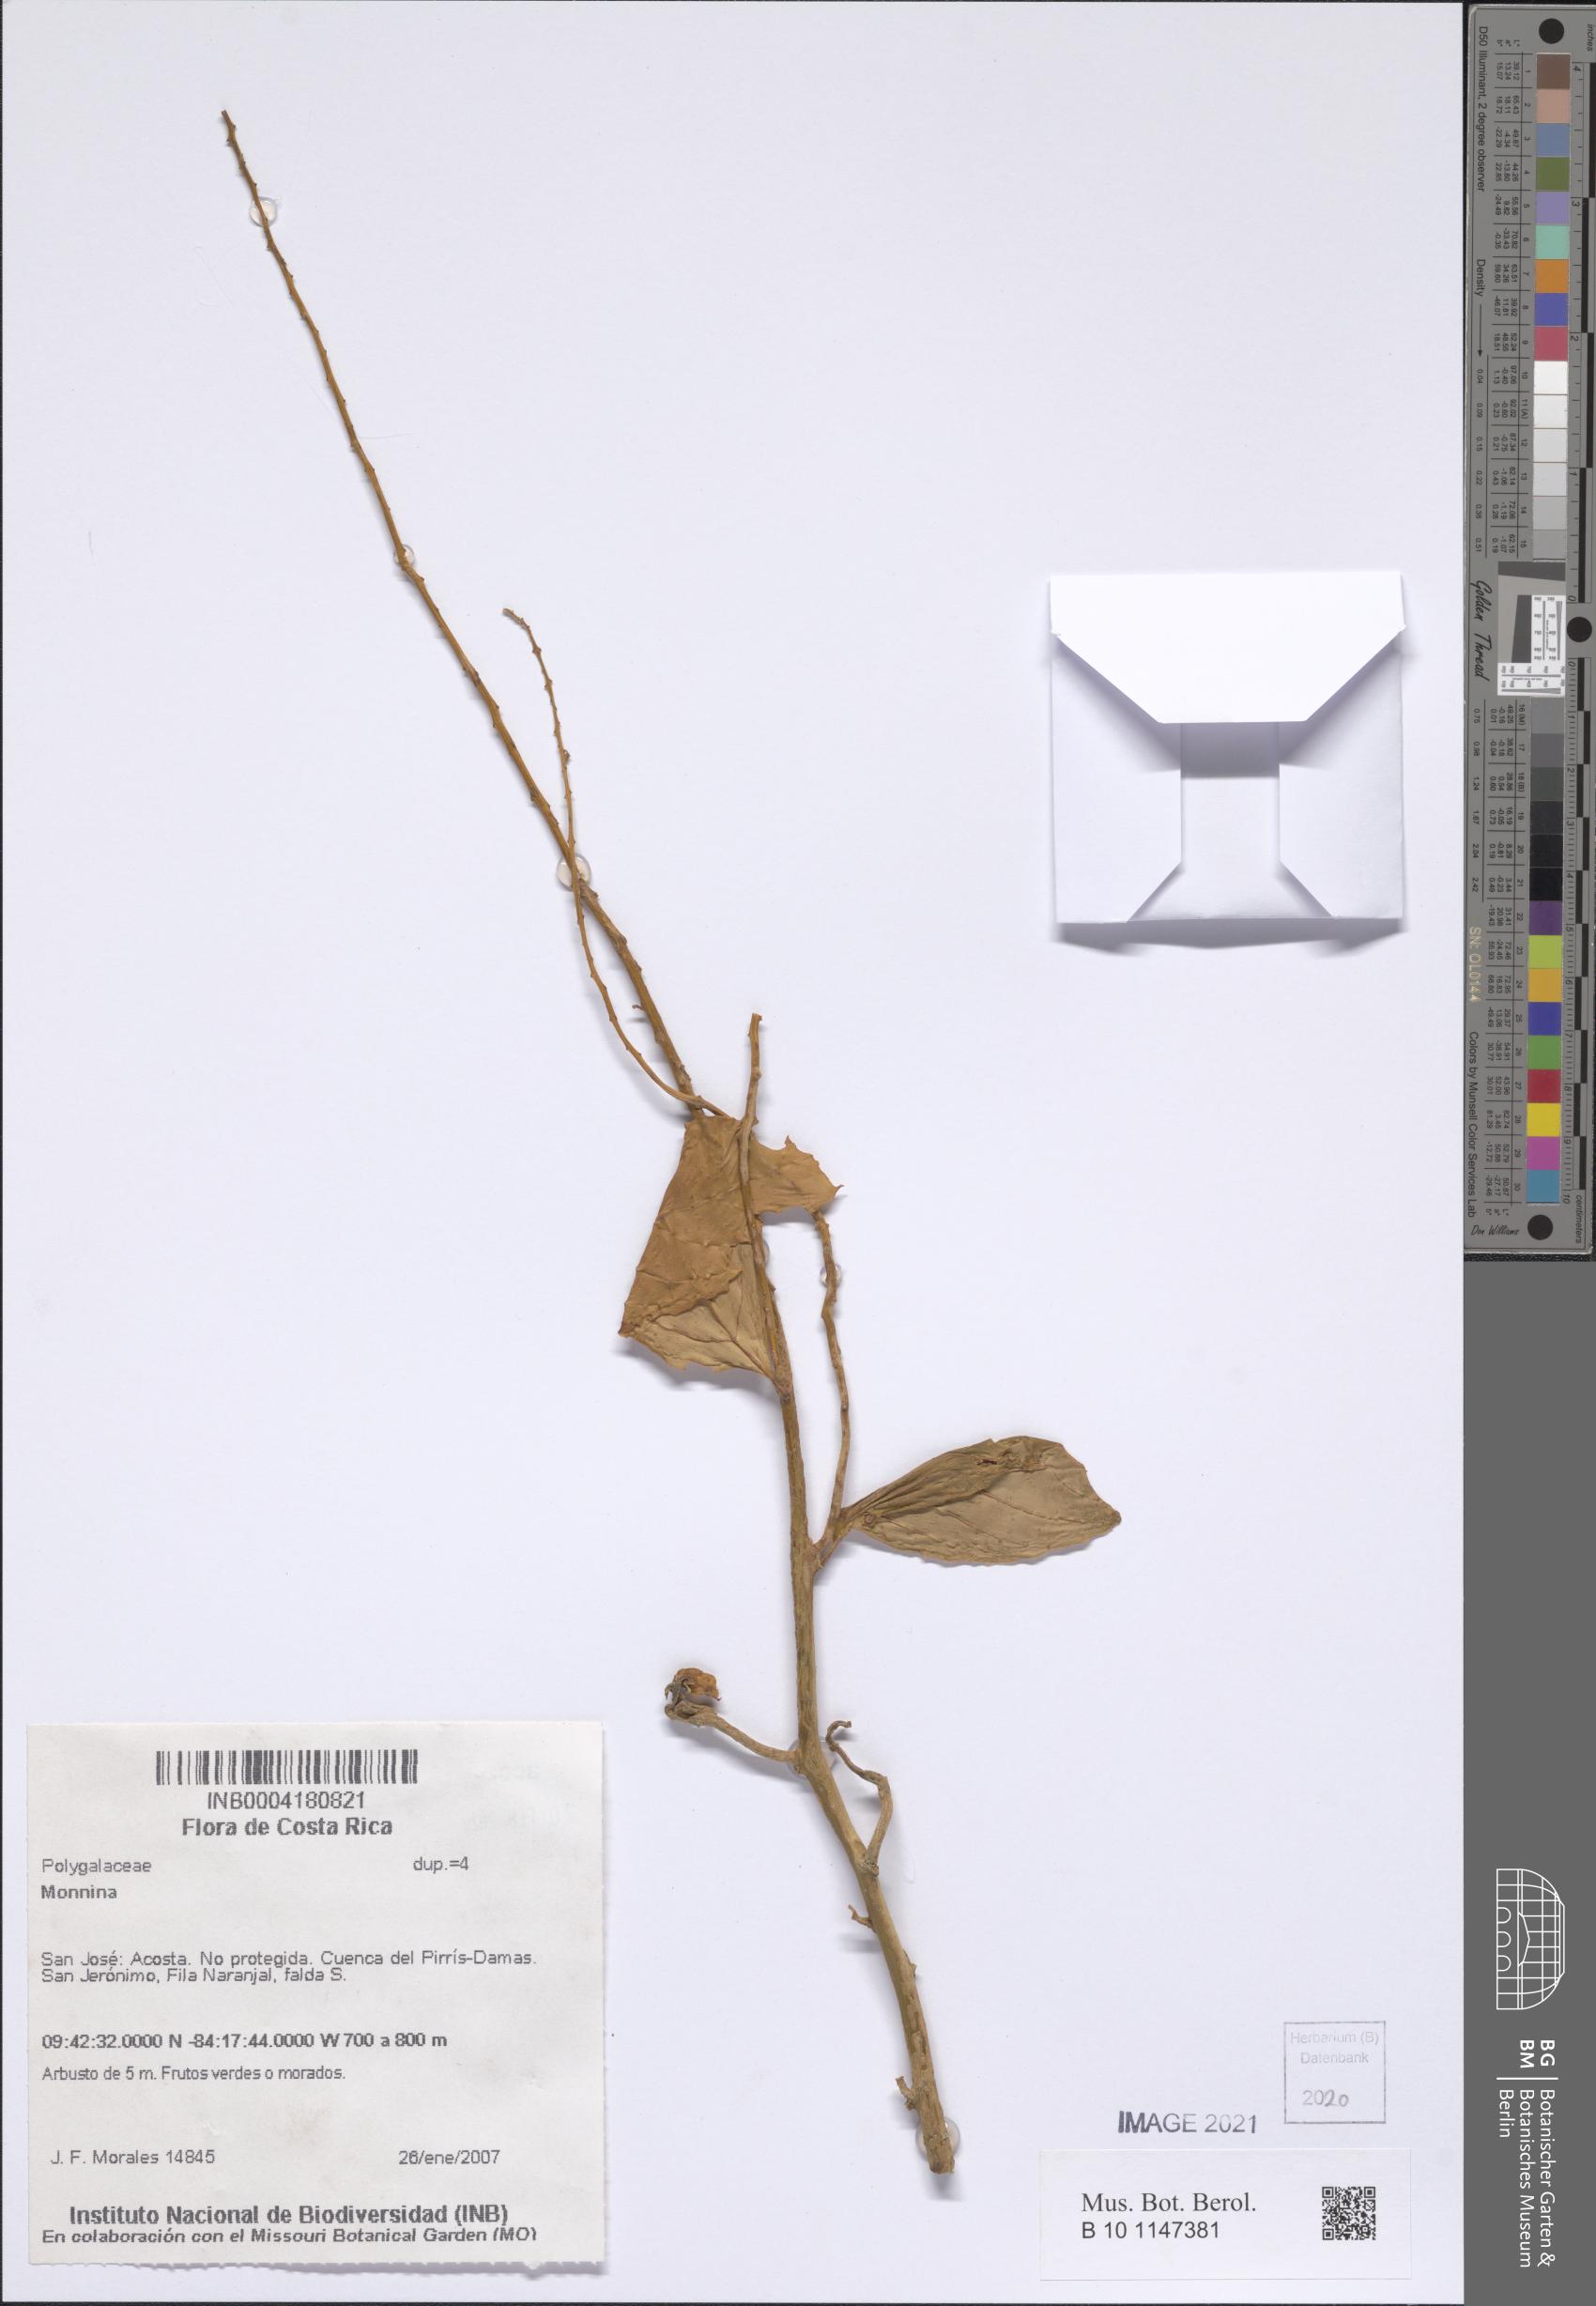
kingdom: Plantae
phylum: Tracheophyta
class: Magnoliopsida
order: Fabales
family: Polygalaceae
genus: Monnina
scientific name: Monnina
